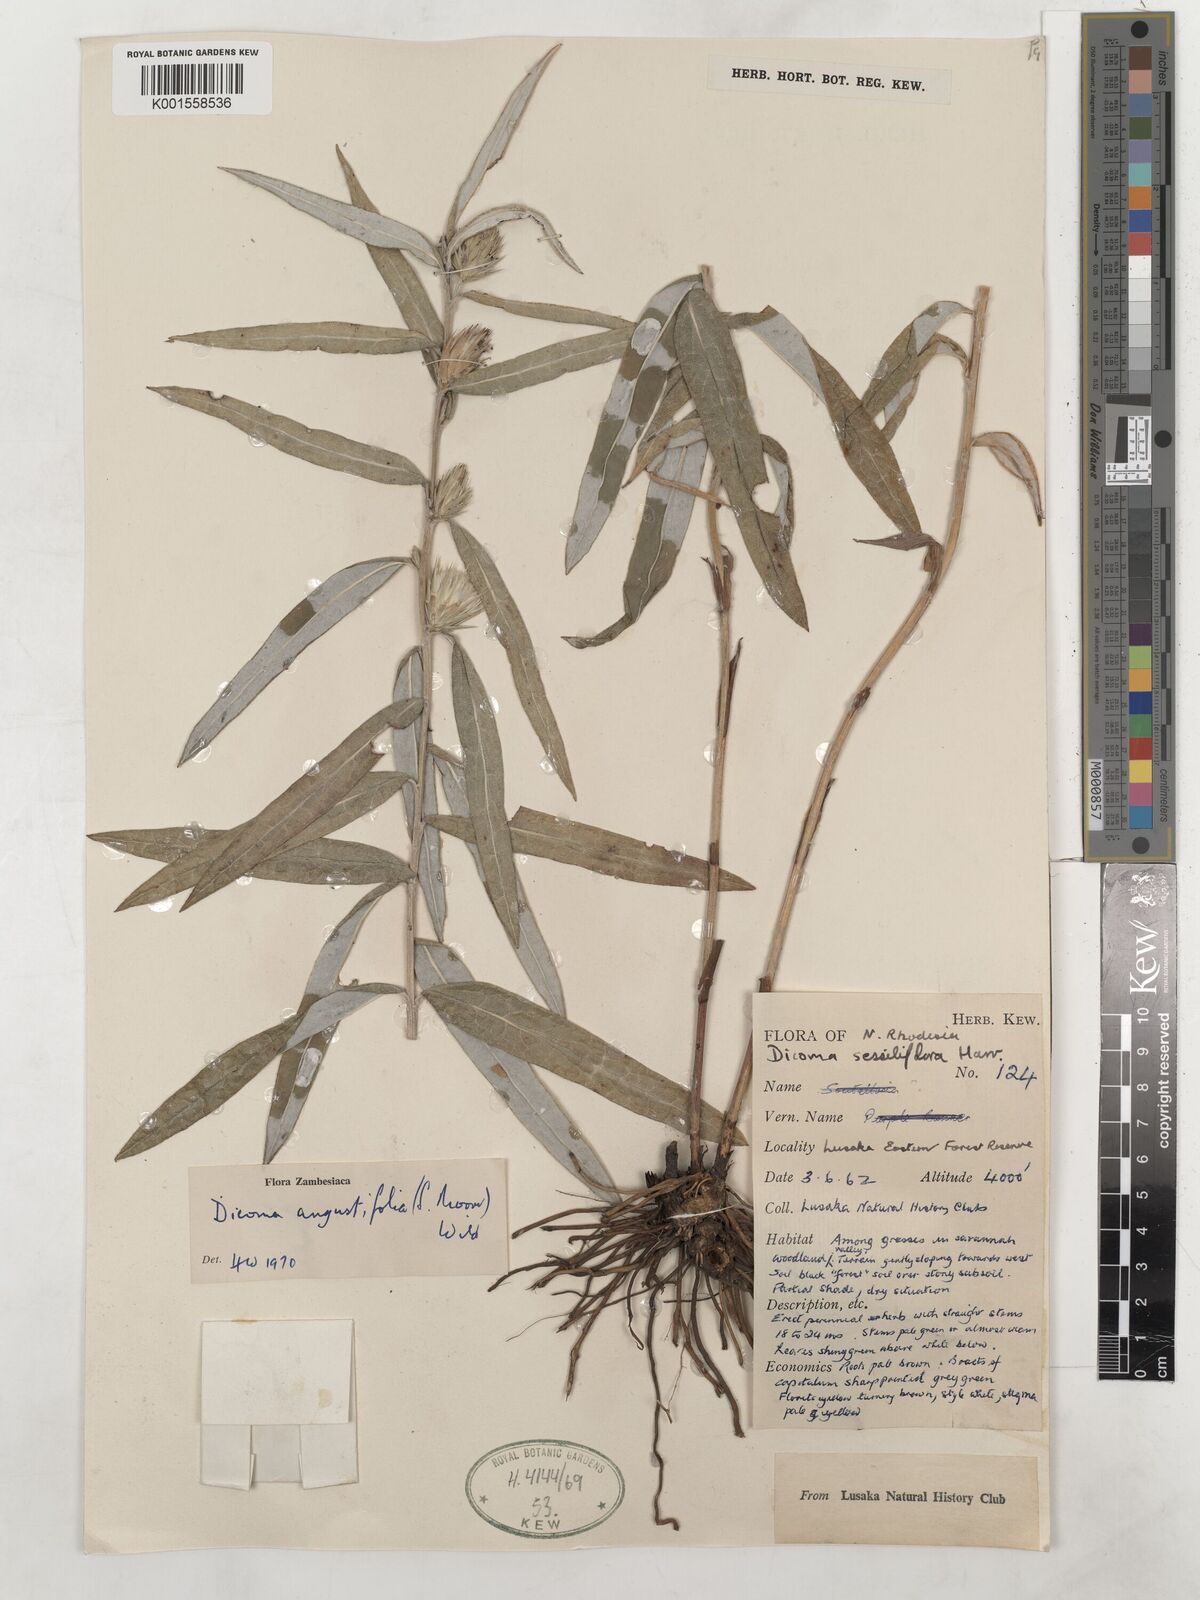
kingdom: Plantae
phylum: Tracheophyta
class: Magnoliopsida
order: Asterales
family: Asteraceae
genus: Macledium
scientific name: Macledium poggei
